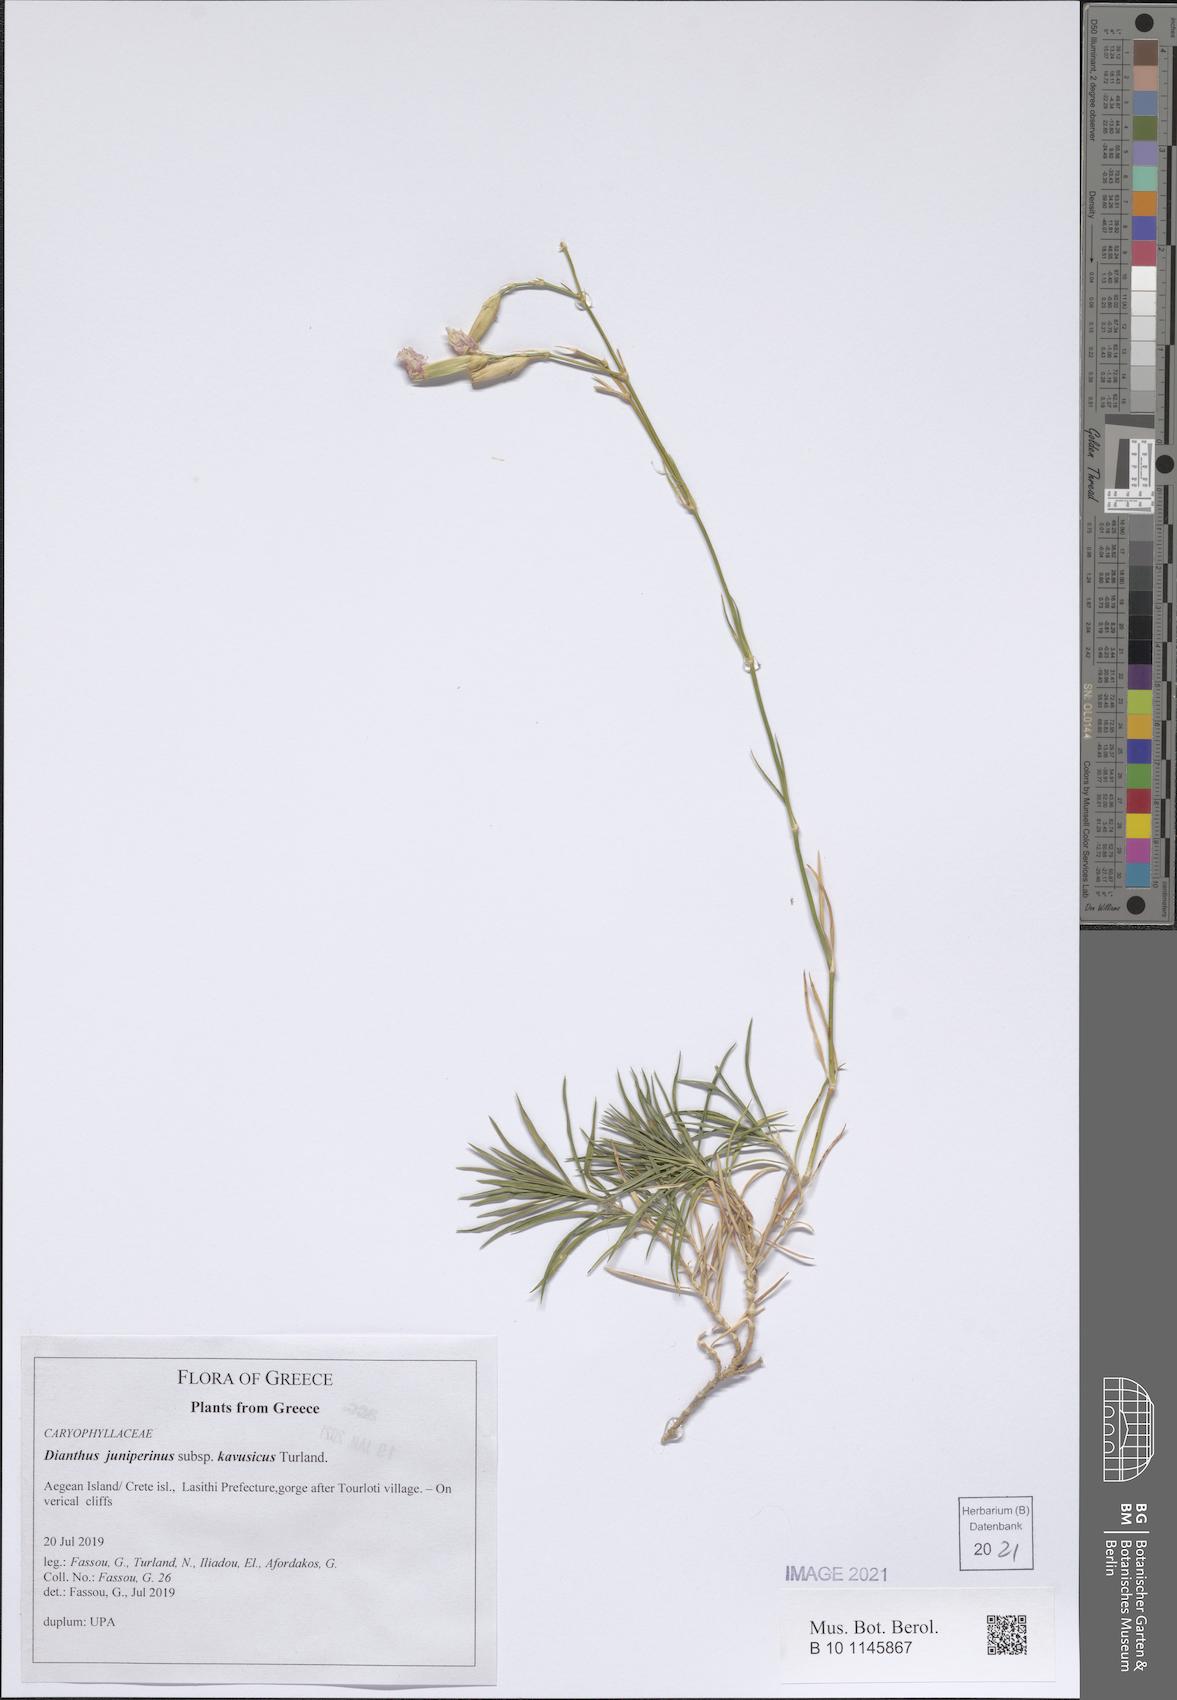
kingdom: Plantae
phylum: Tracheophyta
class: Magnoliopsida
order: Caryophyllales
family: Caryophyllaceae
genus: Dianthus
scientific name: Dianthus juniperinus
